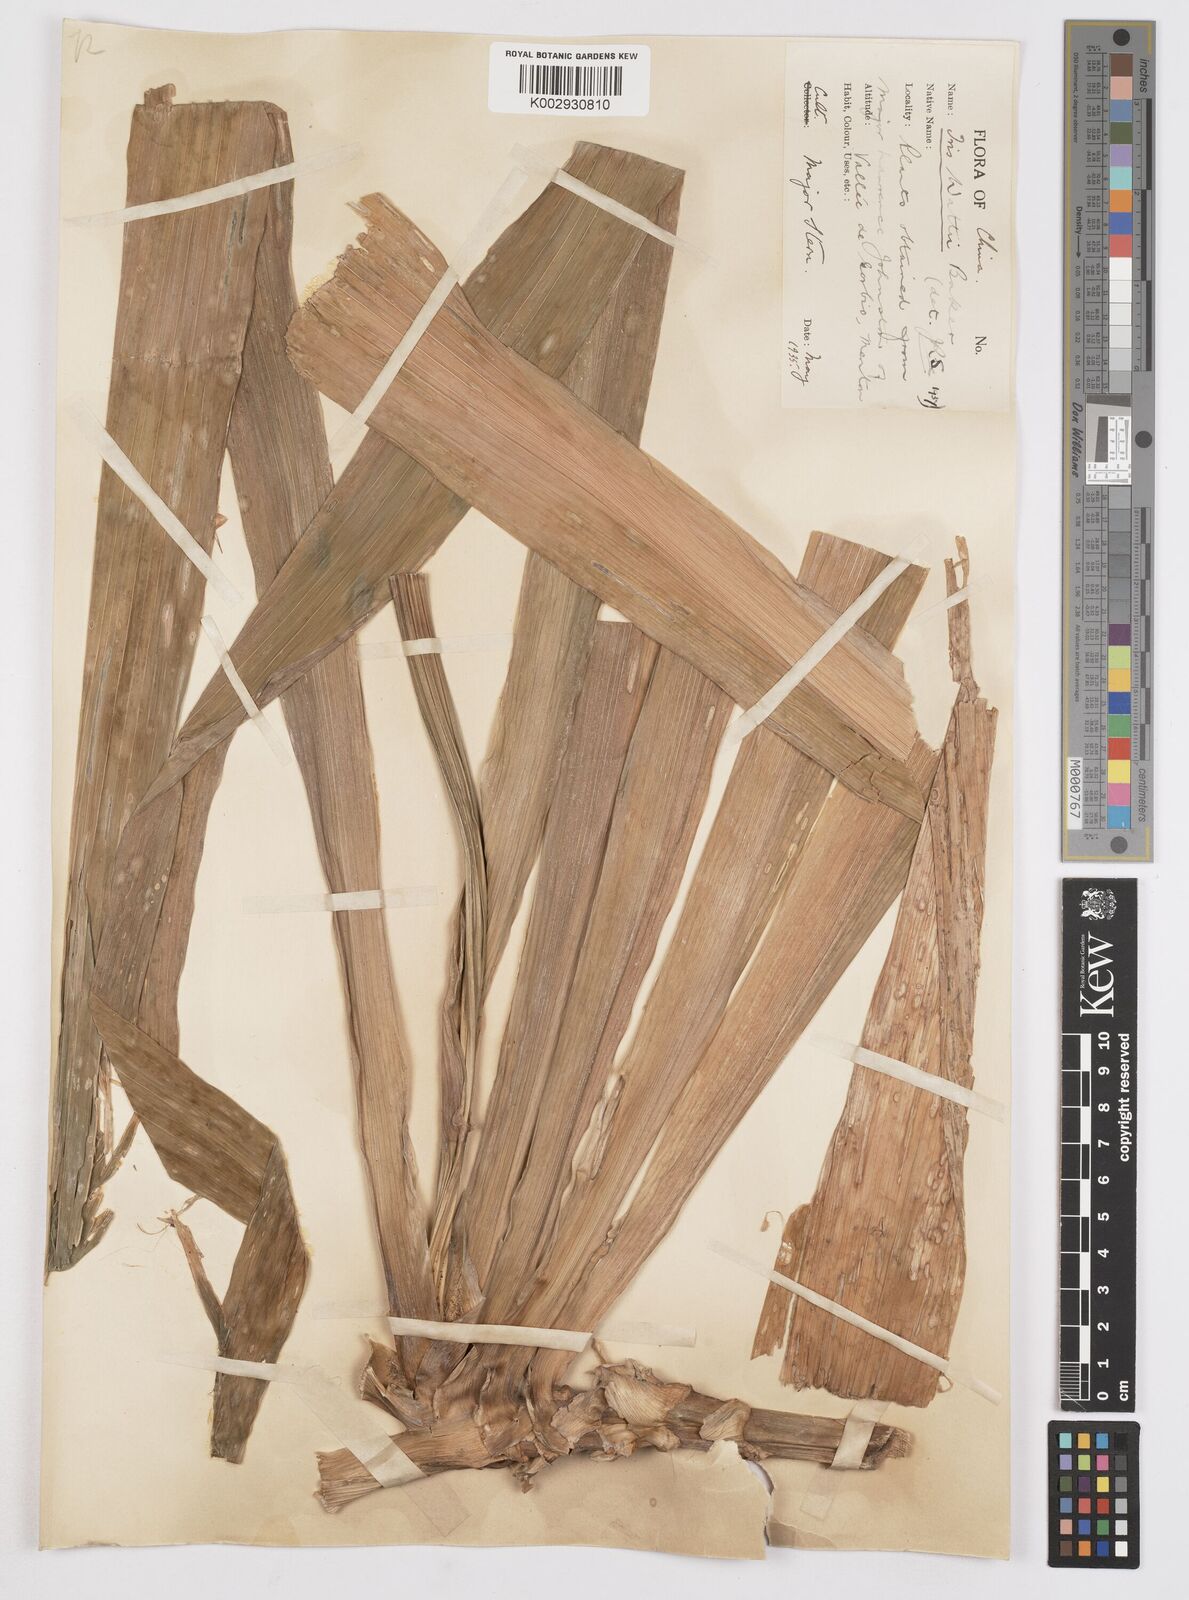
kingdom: Plantae
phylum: Tracheophyta
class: Liliopsida
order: Asparagales
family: Iridaceae
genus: Iris
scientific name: Iris wattii
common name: Fan-shape iris
